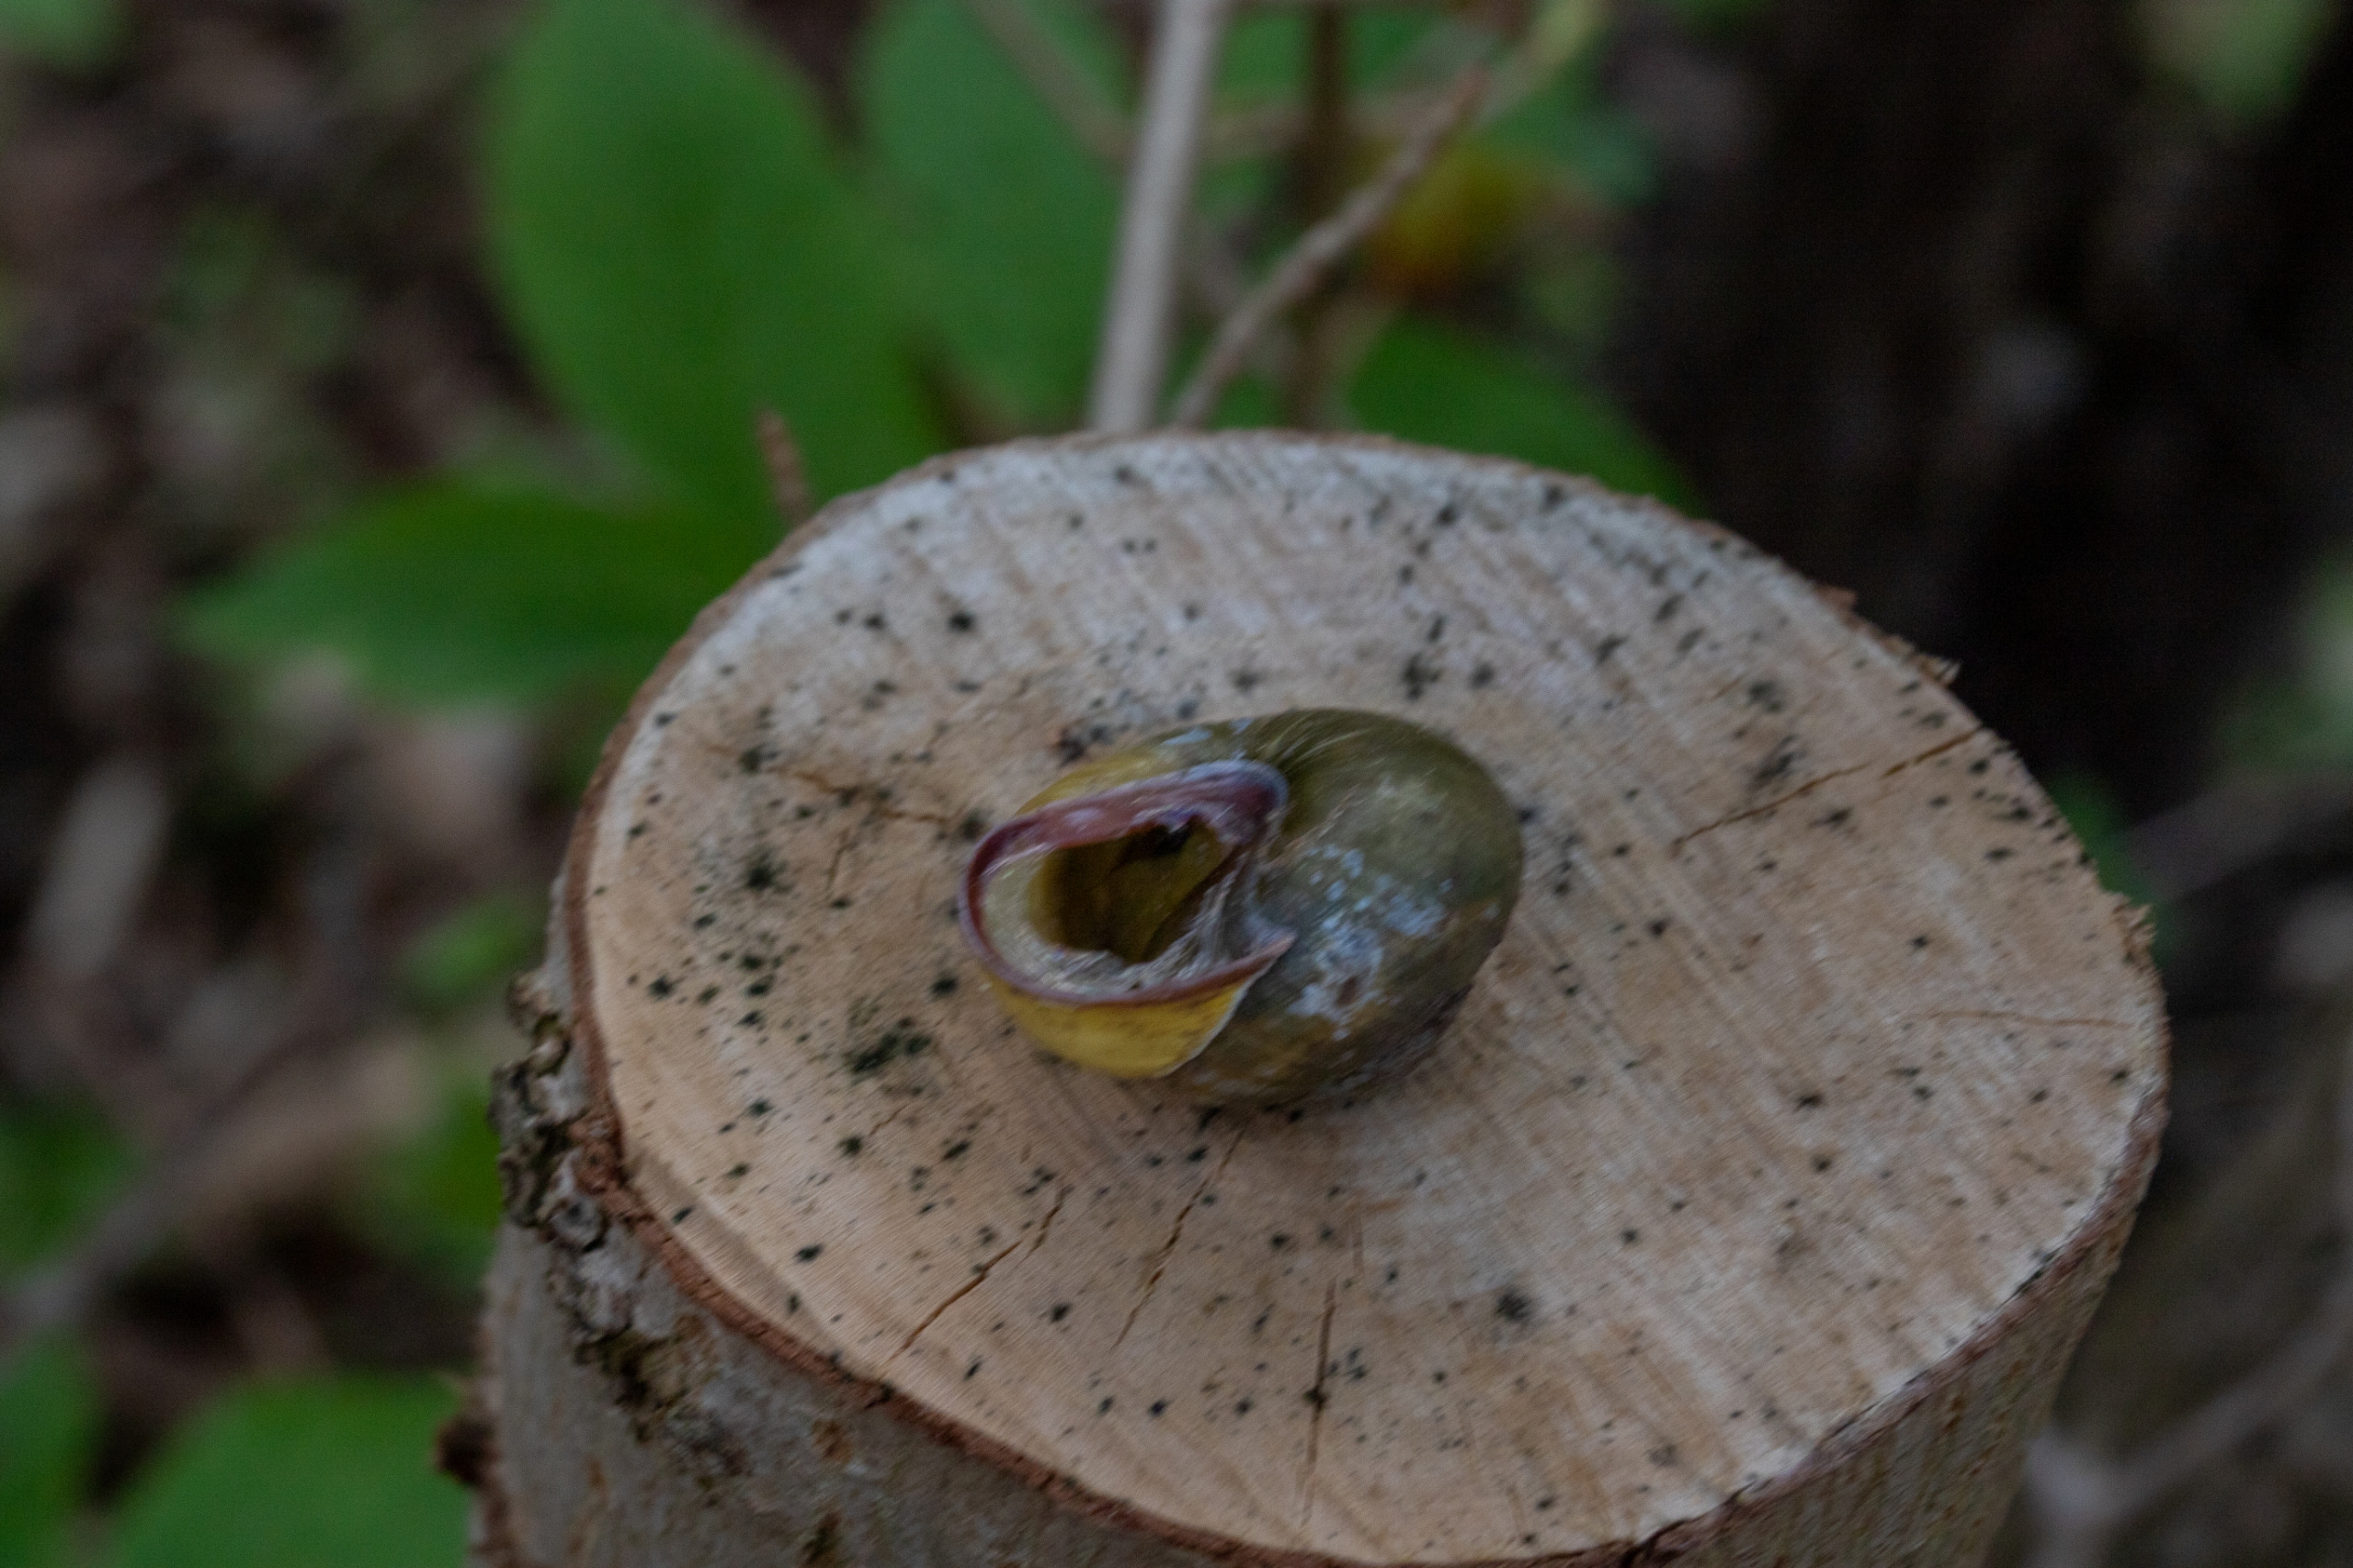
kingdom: Animalia
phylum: Mollusca
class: Gastropoda
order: Stylommatophora
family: Helicidae
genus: Cepaea
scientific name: Cepaea nemoralis
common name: Lundsnegl
